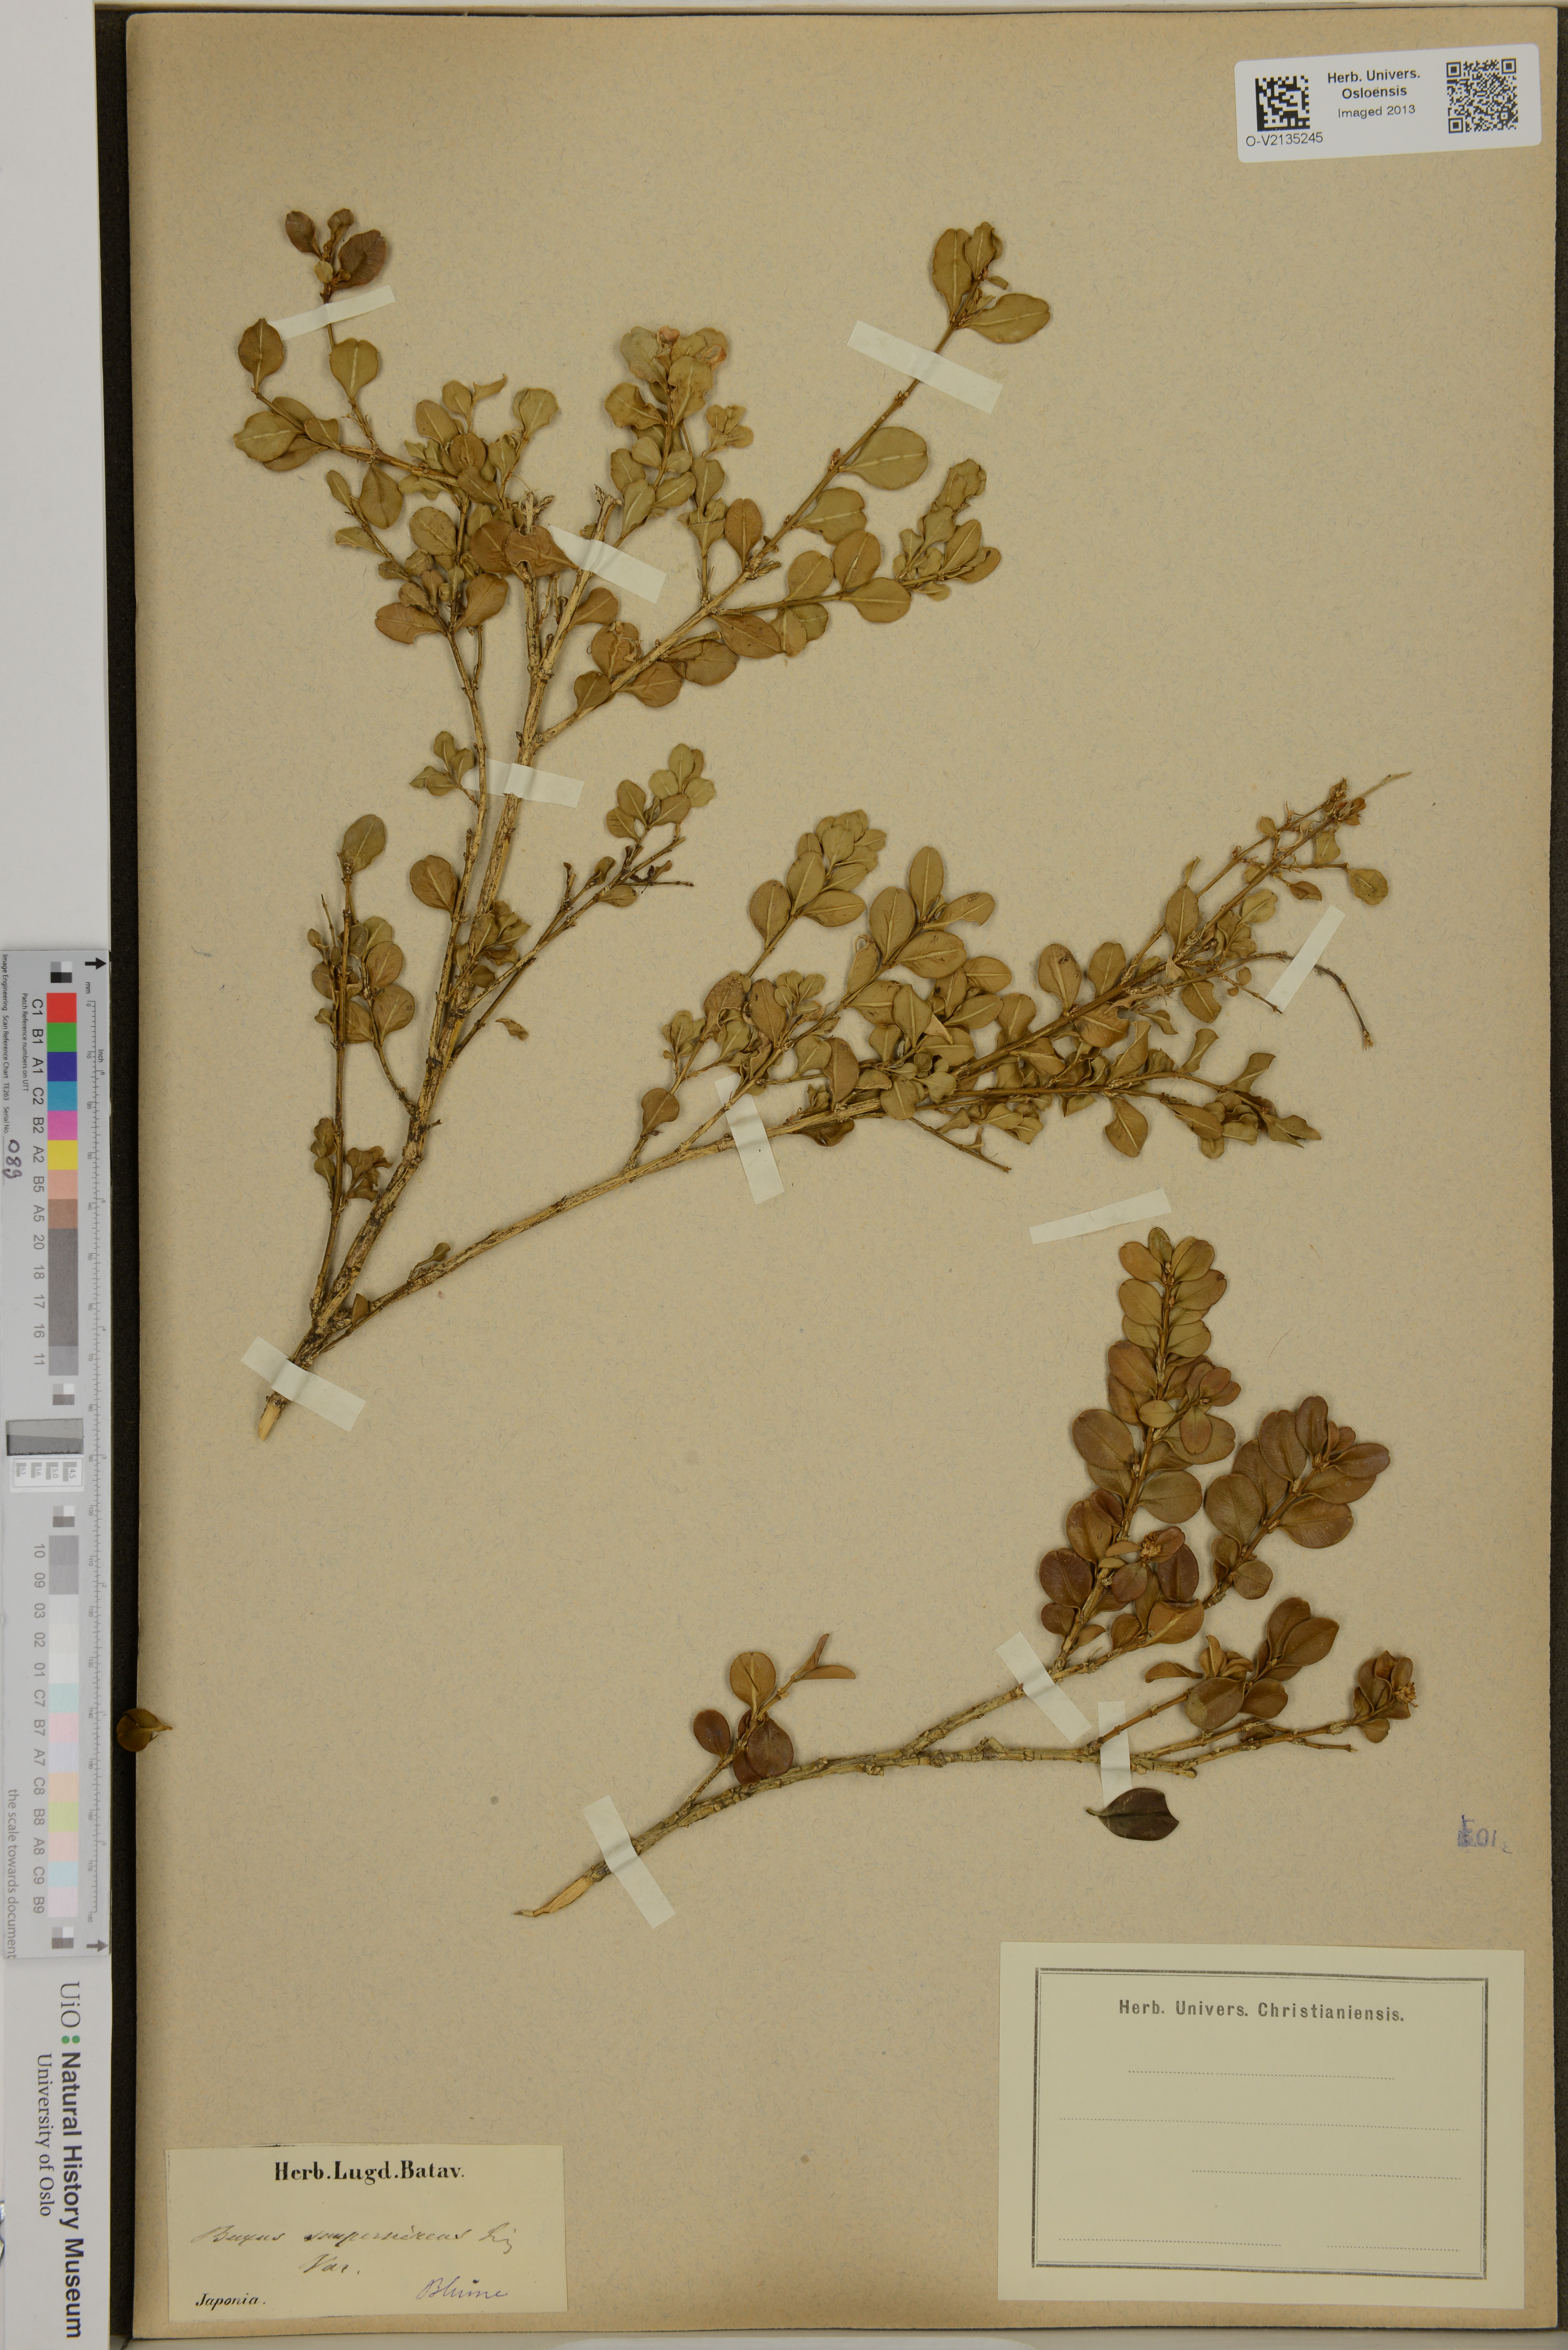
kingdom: Plantae
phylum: Tracheophyta
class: Magnoliopsida
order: Buxales
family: Buxaceae
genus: Buxus
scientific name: Buxus sempervirens
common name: Box
